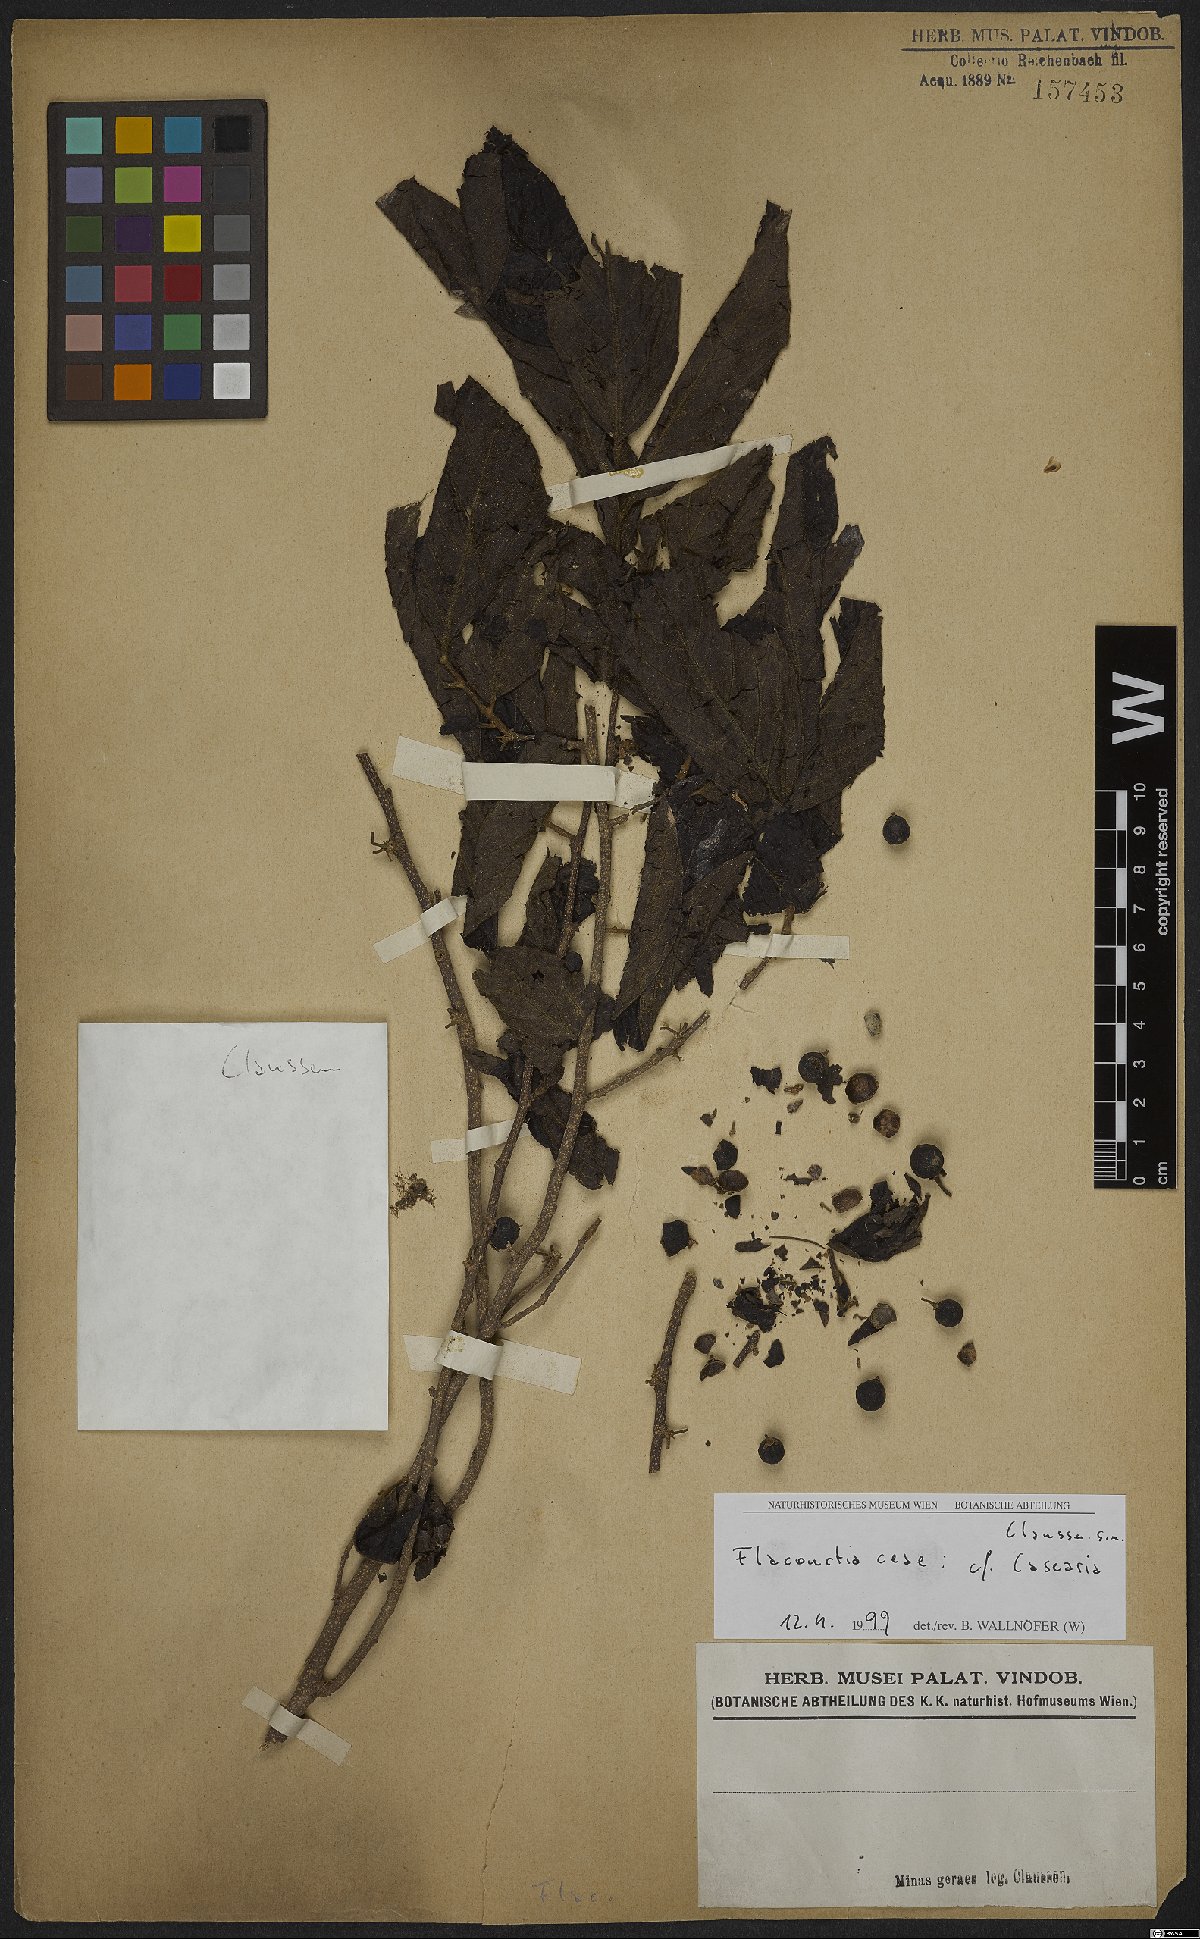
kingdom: Plantae
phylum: Tracheophyta
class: Magnoliopsida
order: Malpighiales
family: Salicaceae
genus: Casearia
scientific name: Casearia
